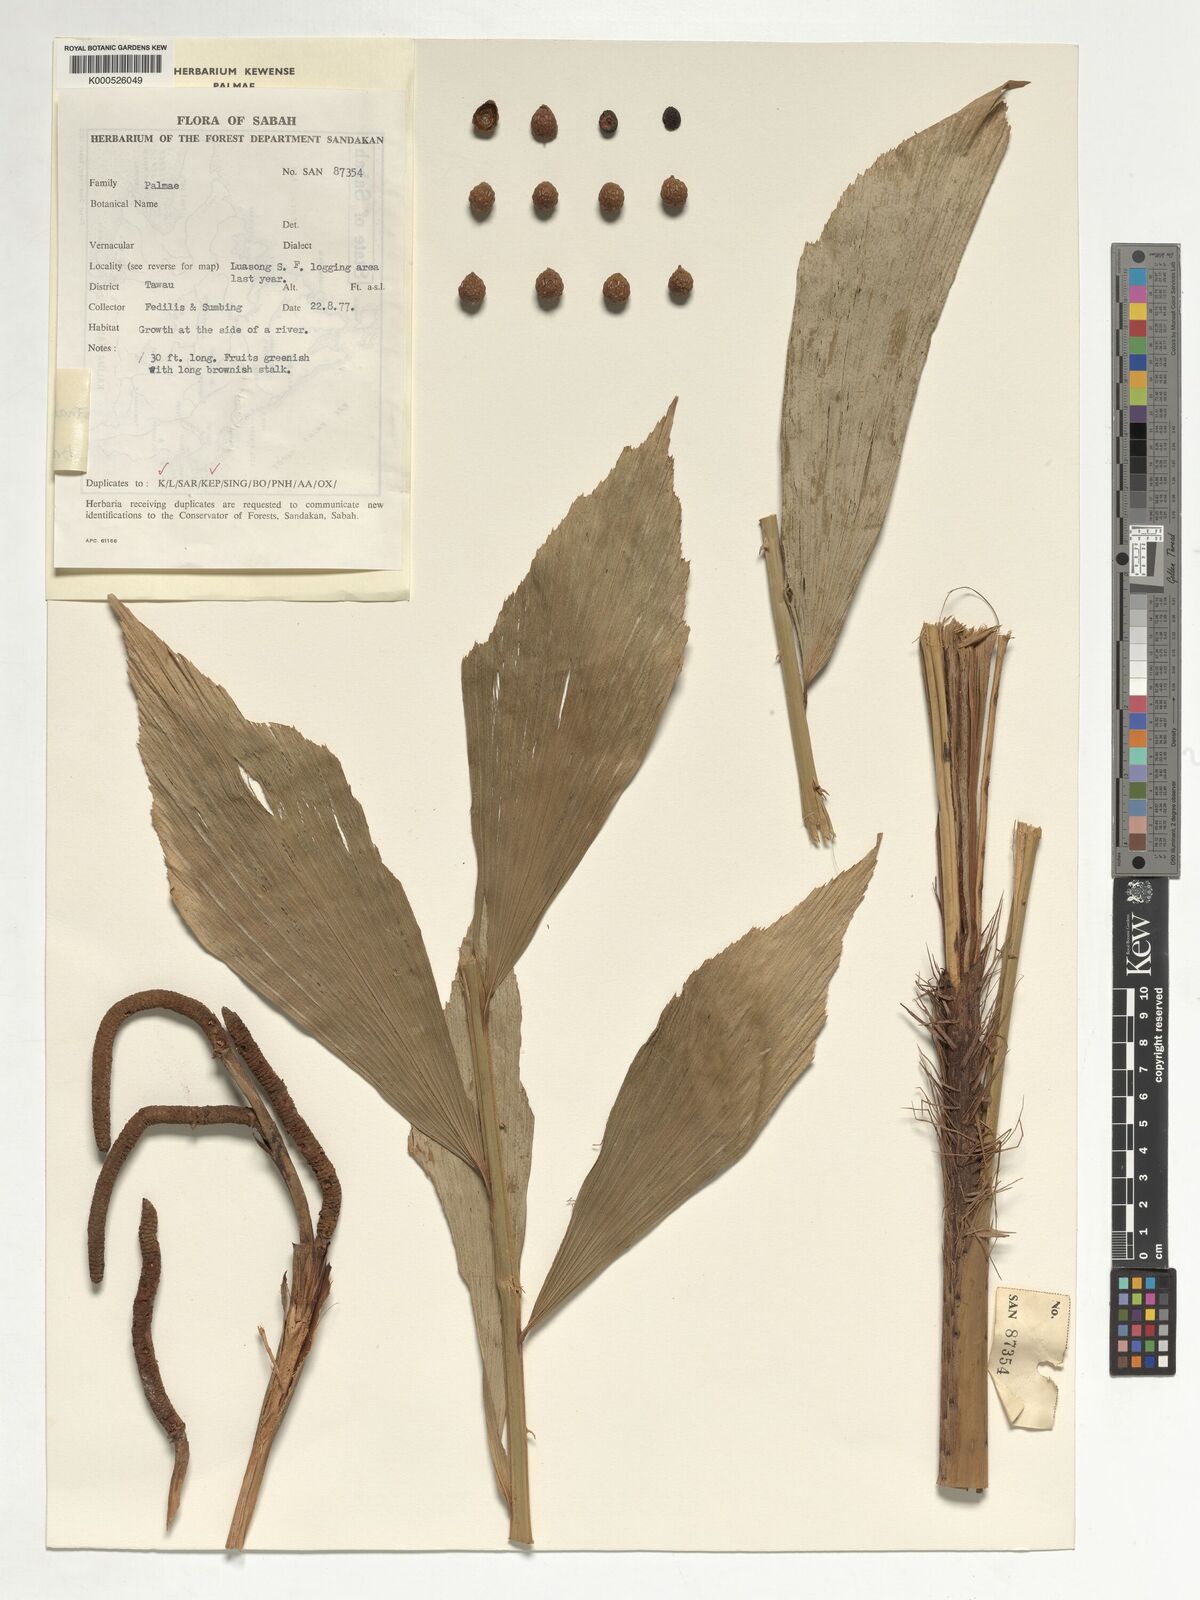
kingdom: Plantae
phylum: Tracheophyta
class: Liliopsida
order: Arecales
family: Arecaceae
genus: Korthalsia
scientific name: Korthalsia ferox
